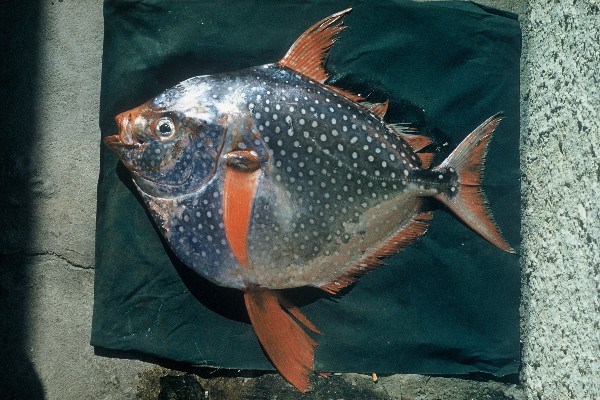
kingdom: Animalia
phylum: Chordata
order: Lampriformes
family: Lampridae
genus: Lampris
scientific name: Lampris guttatus
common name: Opah
